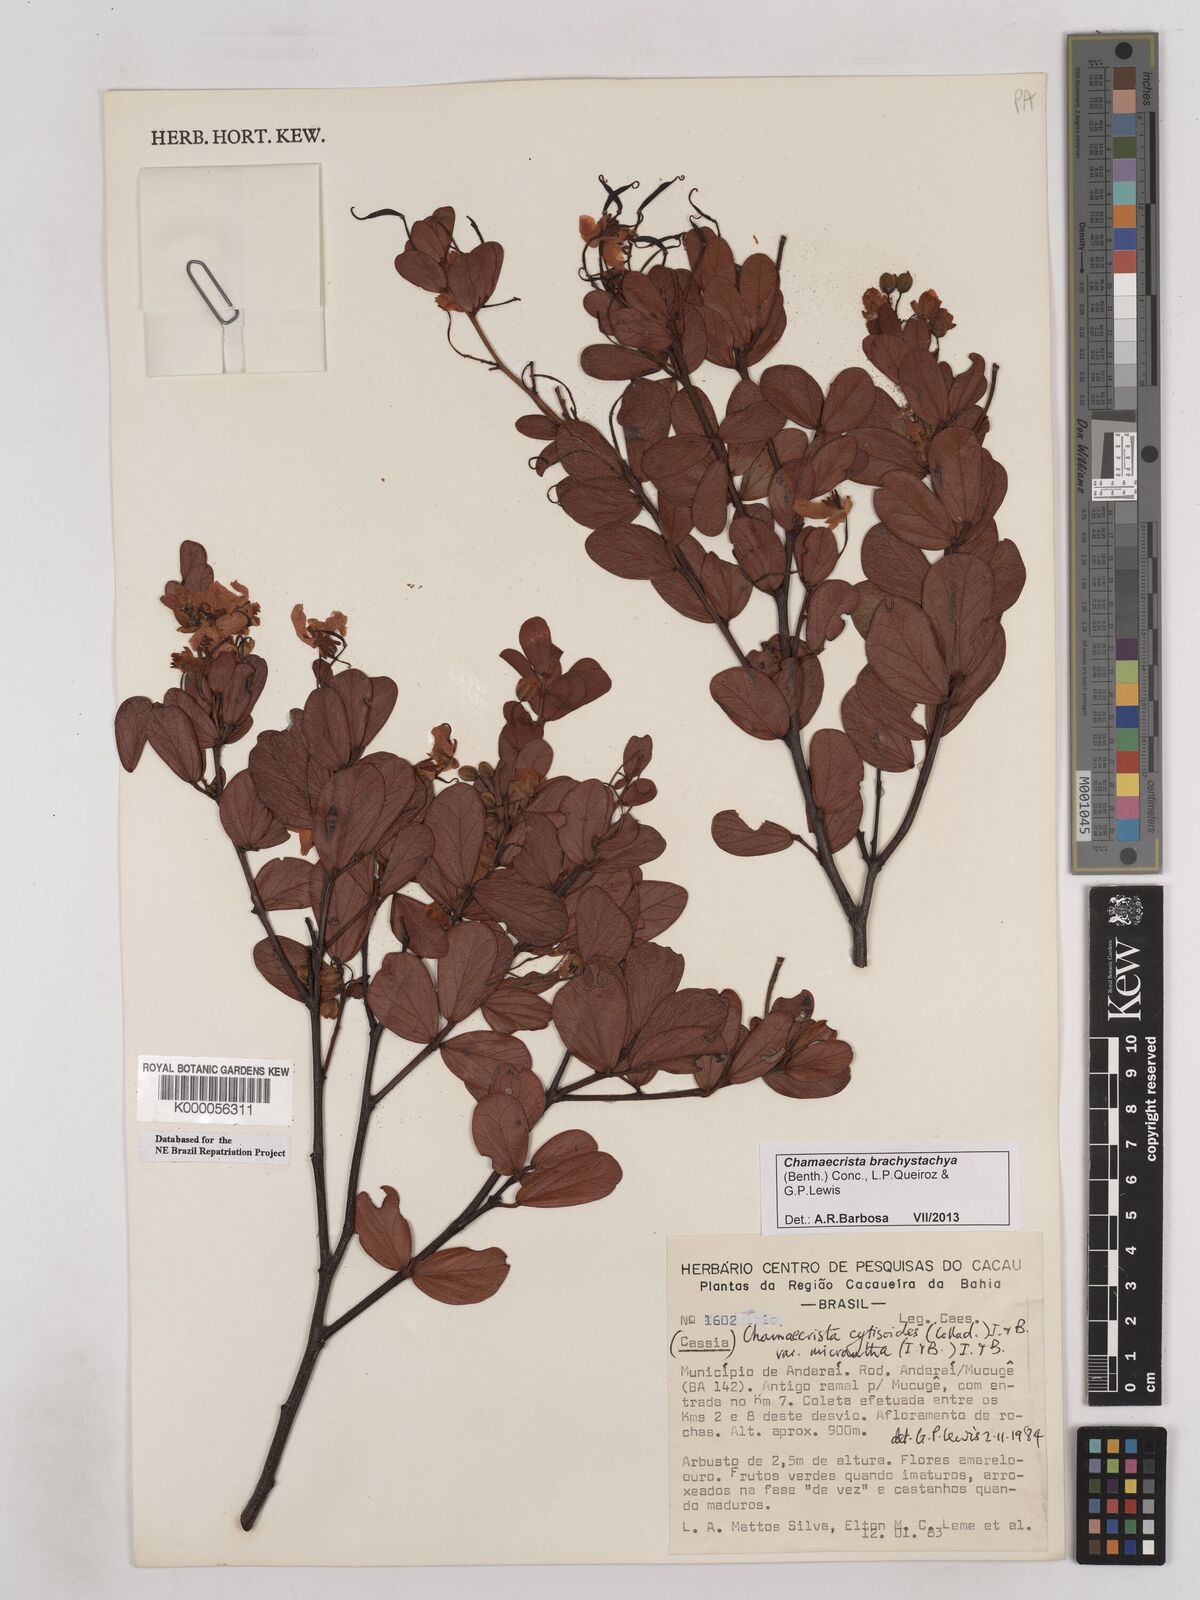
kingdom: Plantae
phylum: Tracheophyta
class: Magnoliopsida
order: Fabales
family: Fabaceae
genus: Chamaecrista
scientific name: Chamaecrista cytisoides
